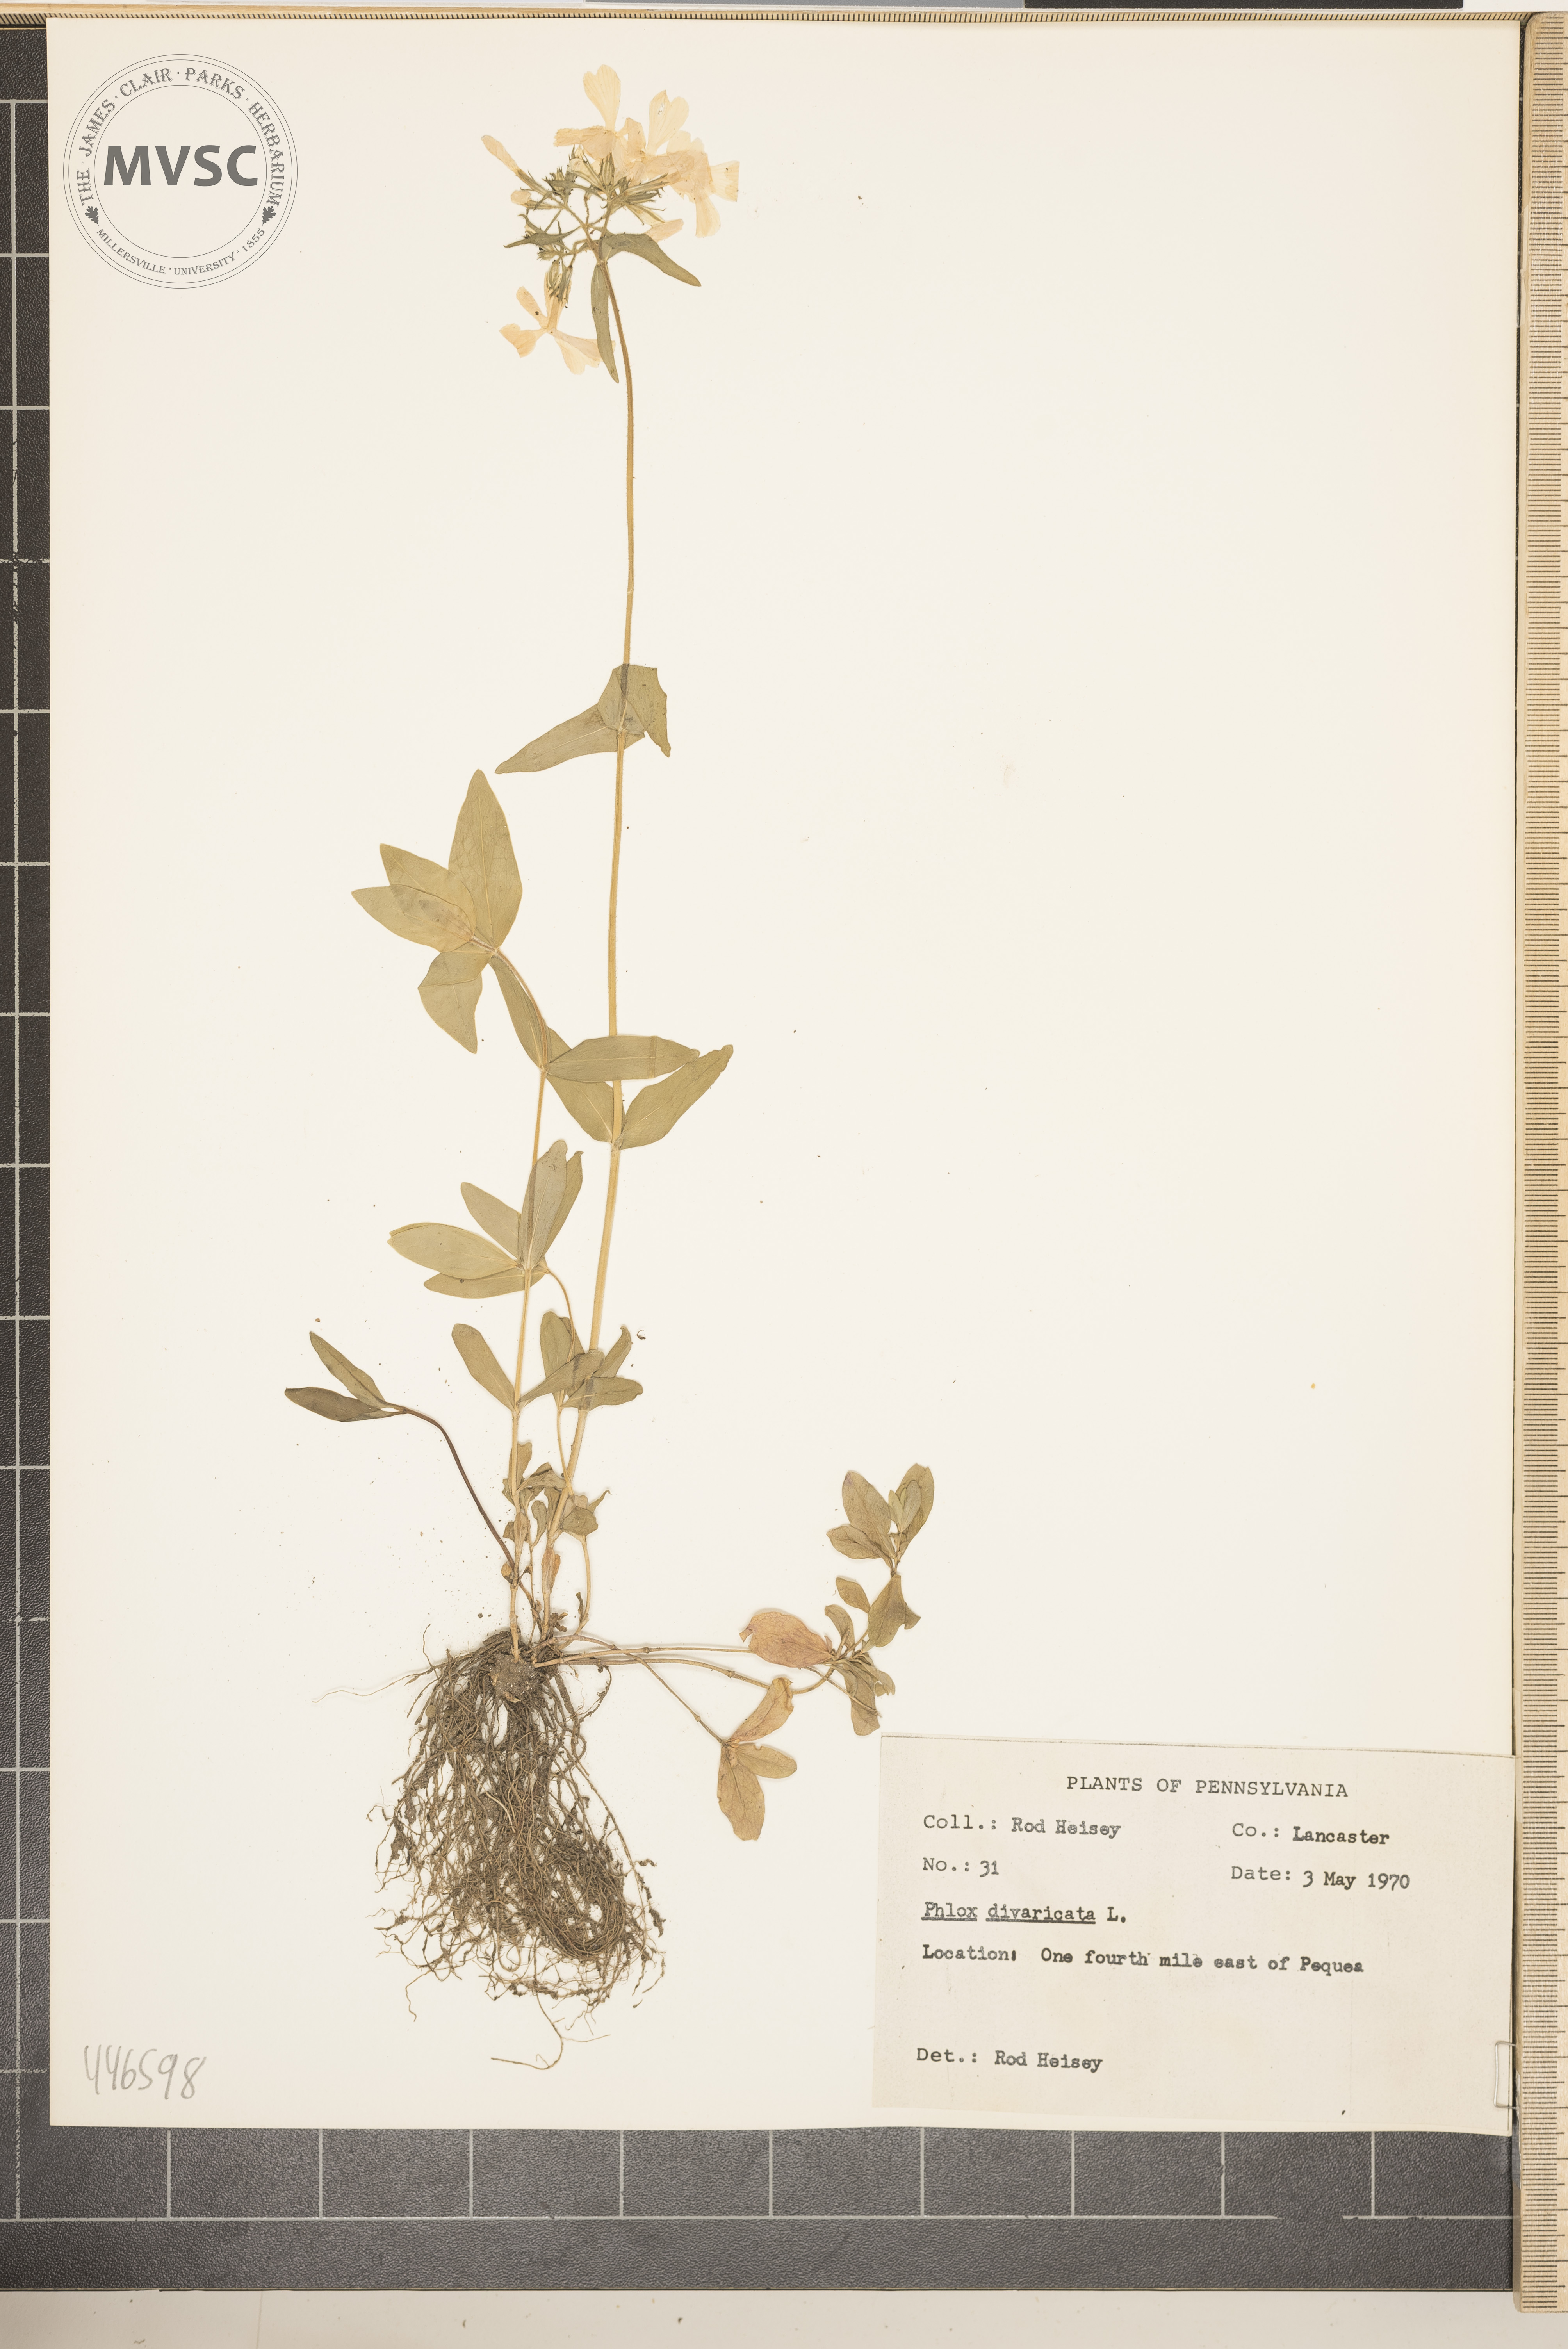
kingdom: Plantae
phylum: Tracheophyta
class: Magnoliopsida
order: Ericales
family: Polemoniaceae
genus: Phlox
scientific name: Phlox divaricata
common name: Blue phlox
